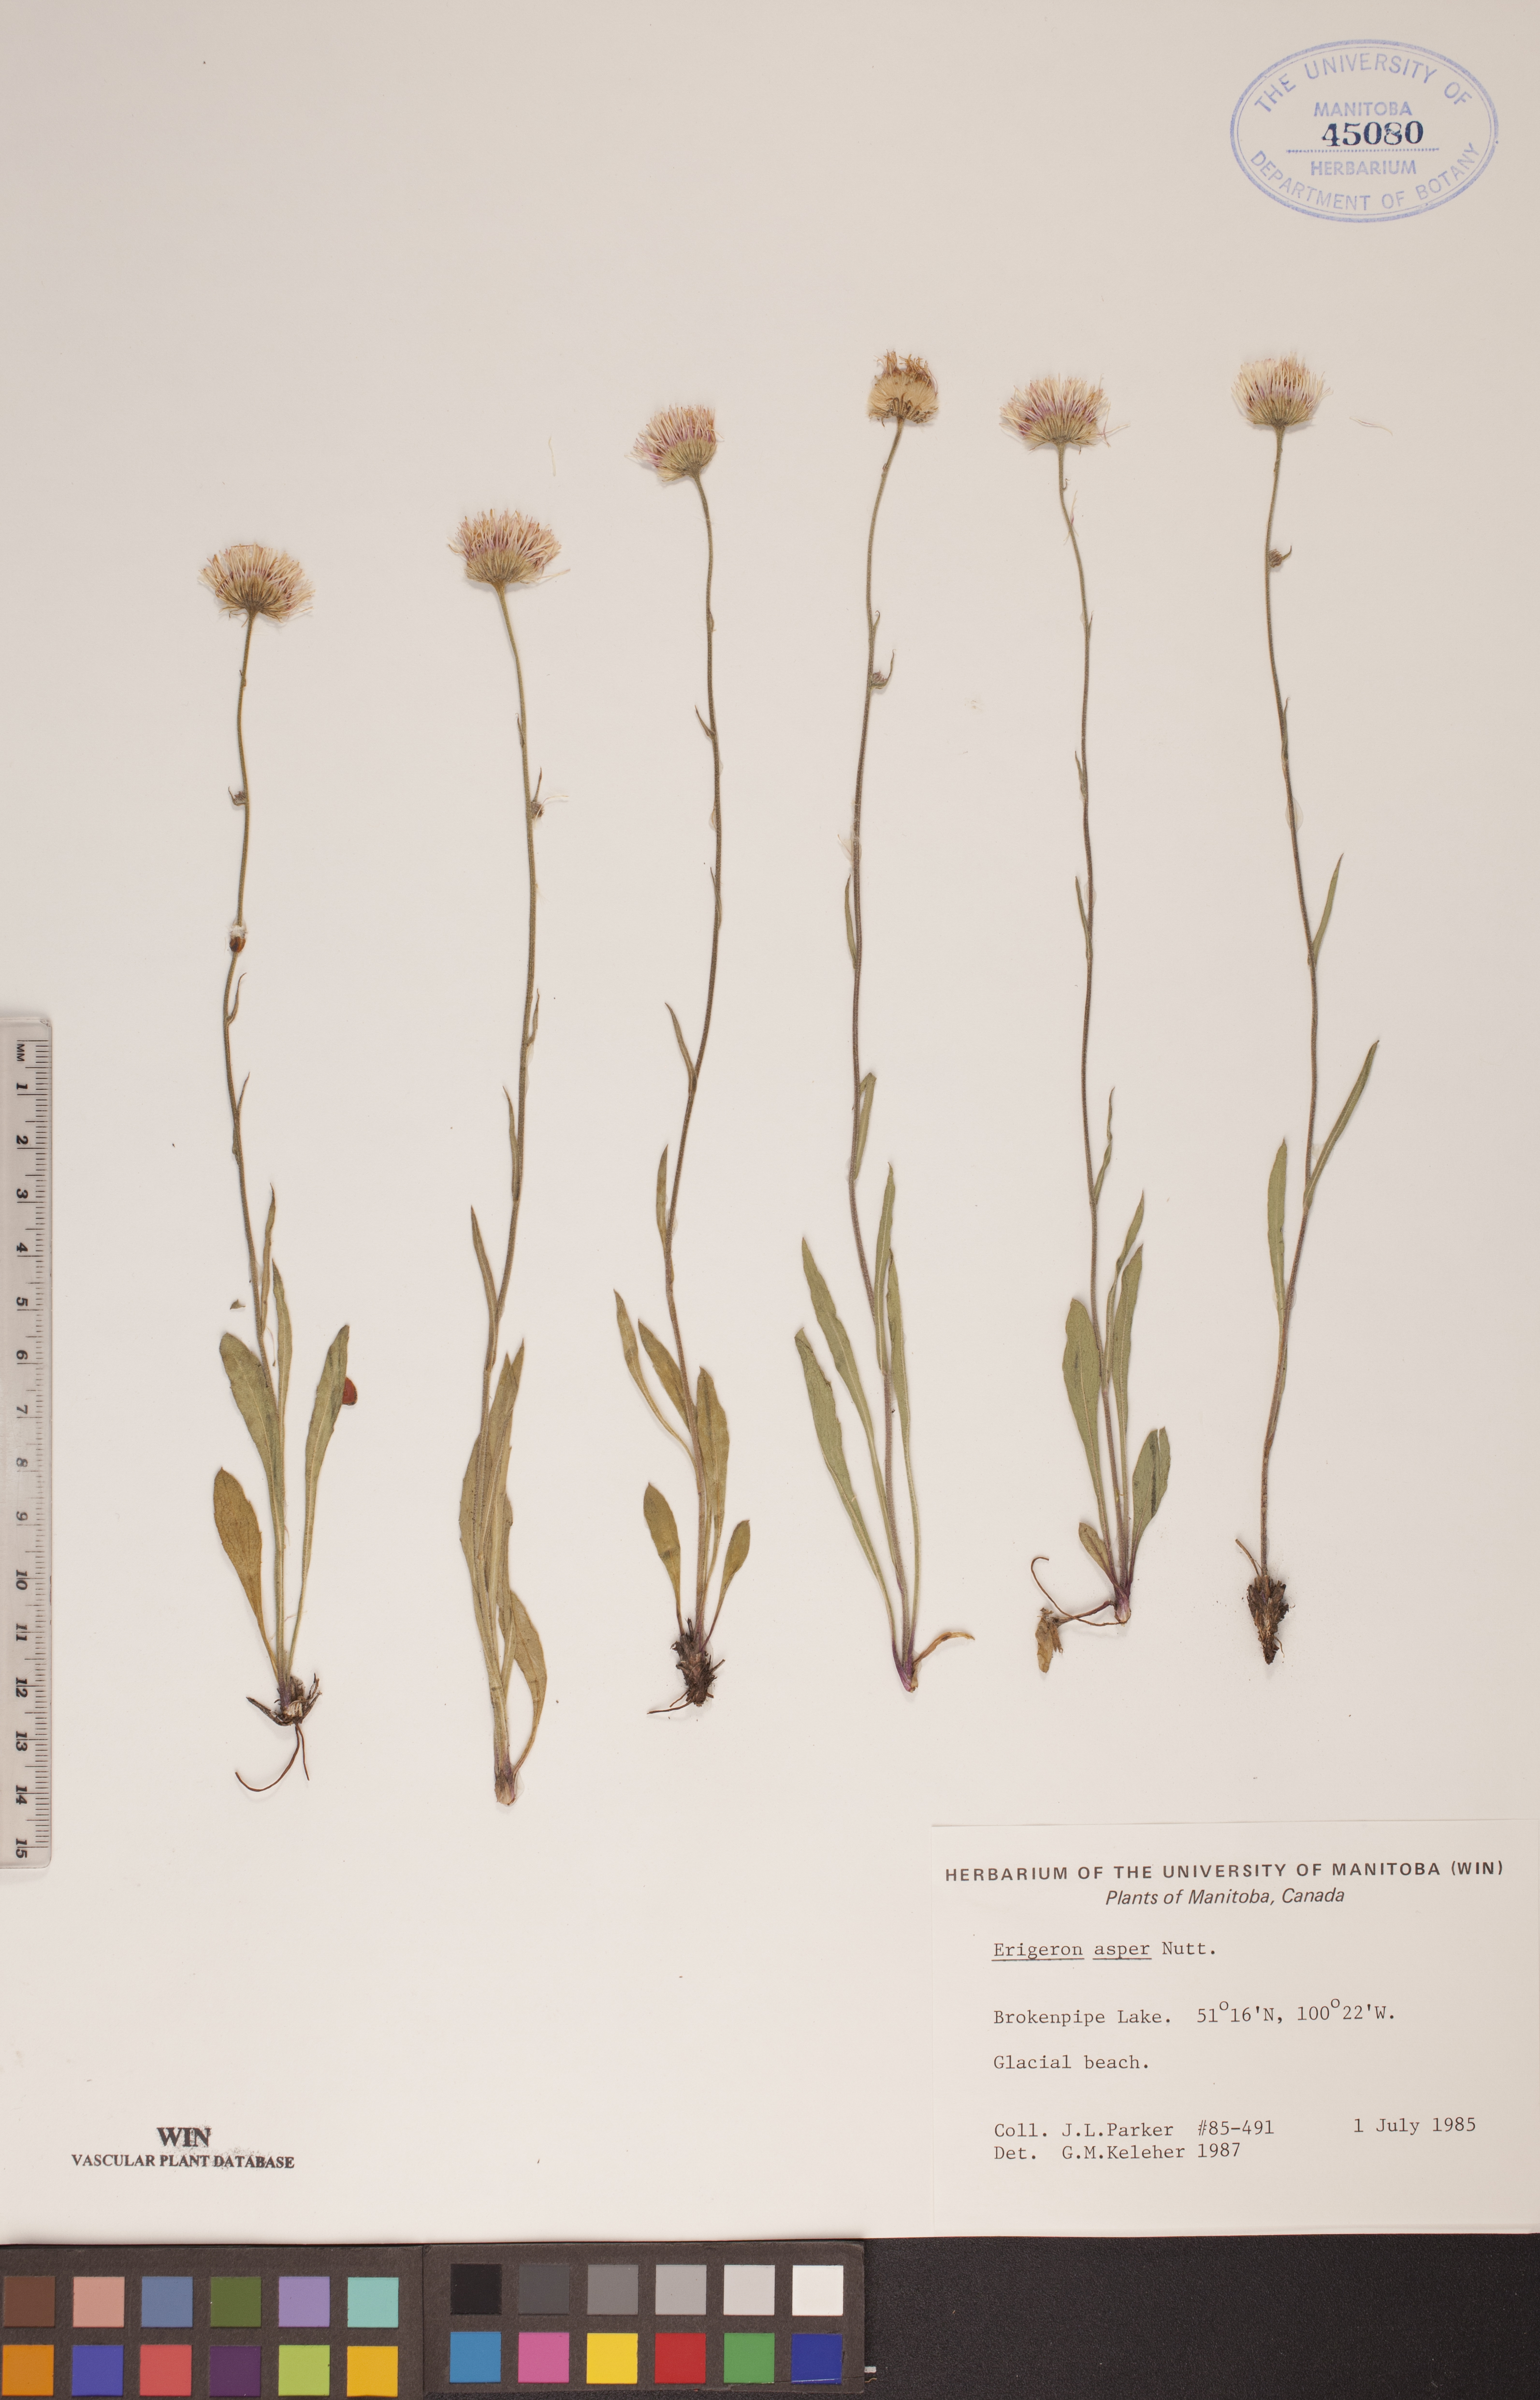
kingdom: Plantae
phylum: Tracheophyta
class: Magnoliopsida
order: Asterales
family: Asteraceae
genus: Erigeron
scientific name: Erigeron glabellus
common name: Smooth fleabane
